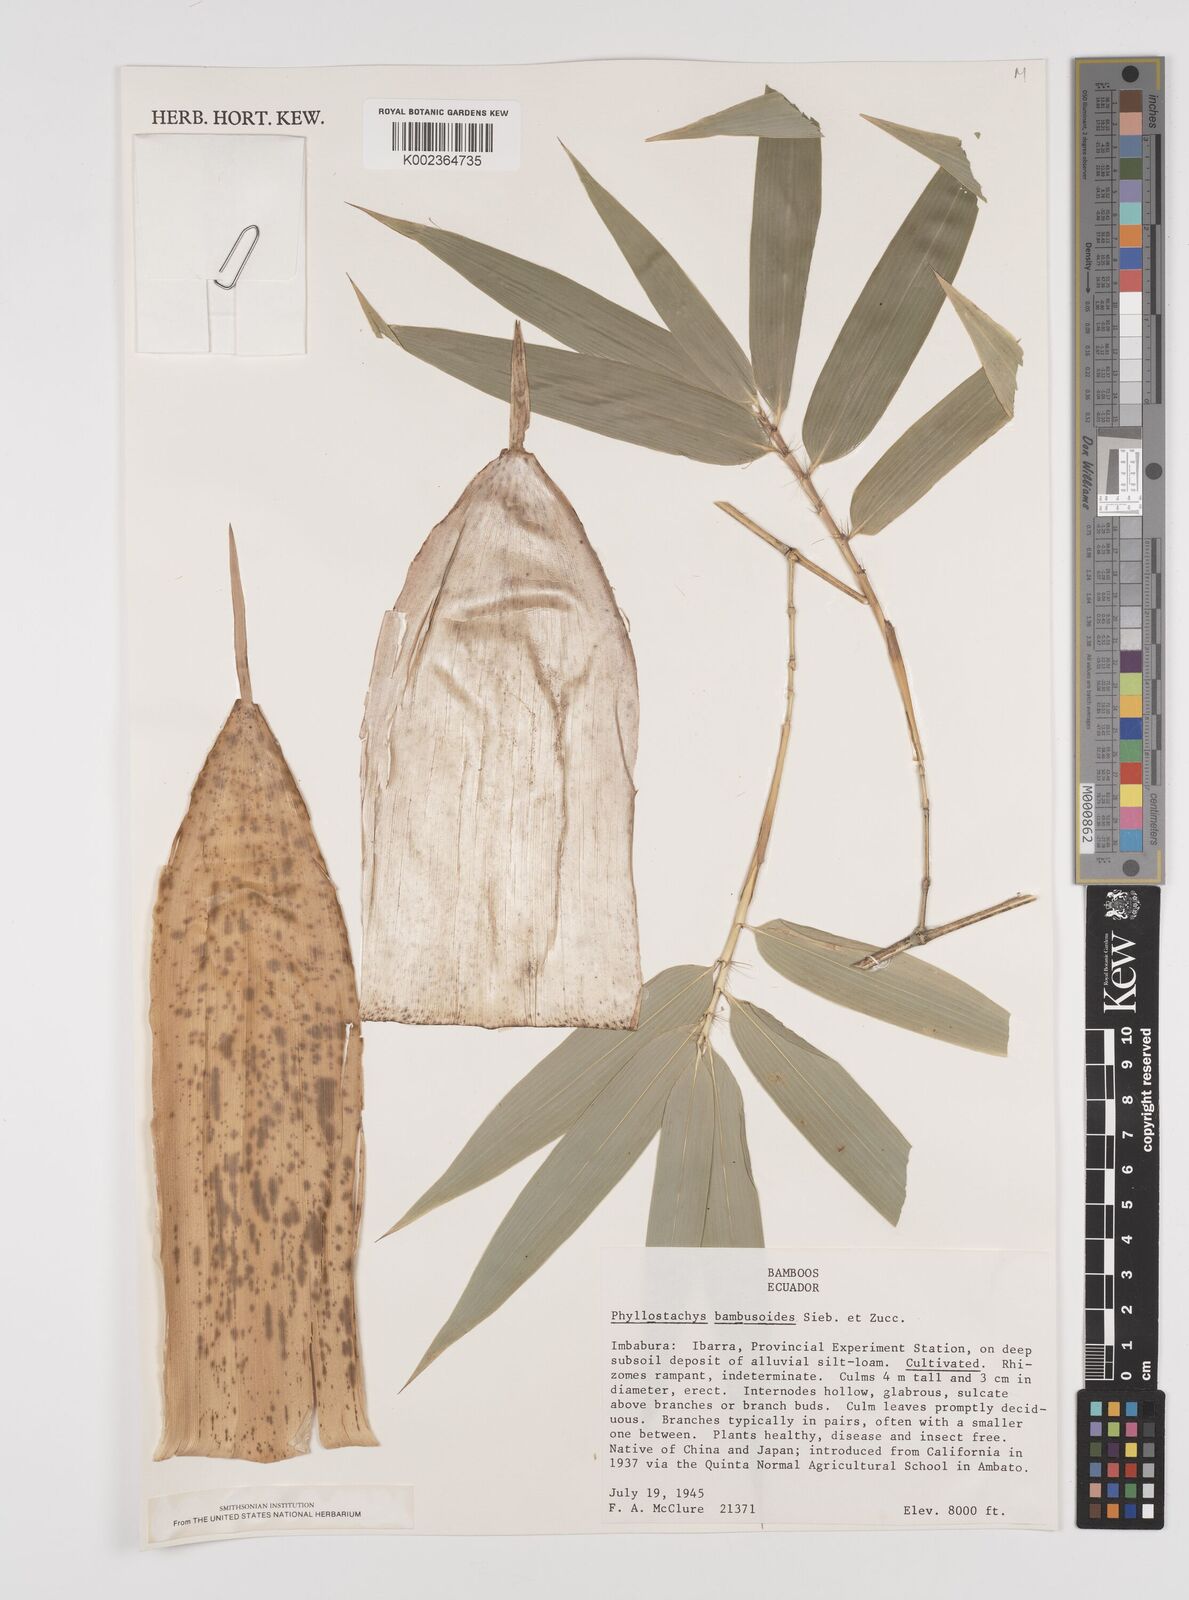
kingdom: Plantae
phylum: Tracheophyta
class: Liliopsida
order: Poales
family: Poaceae
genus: Phyllostachys
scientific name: Phyllostachys reticulata
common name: Bamboo
